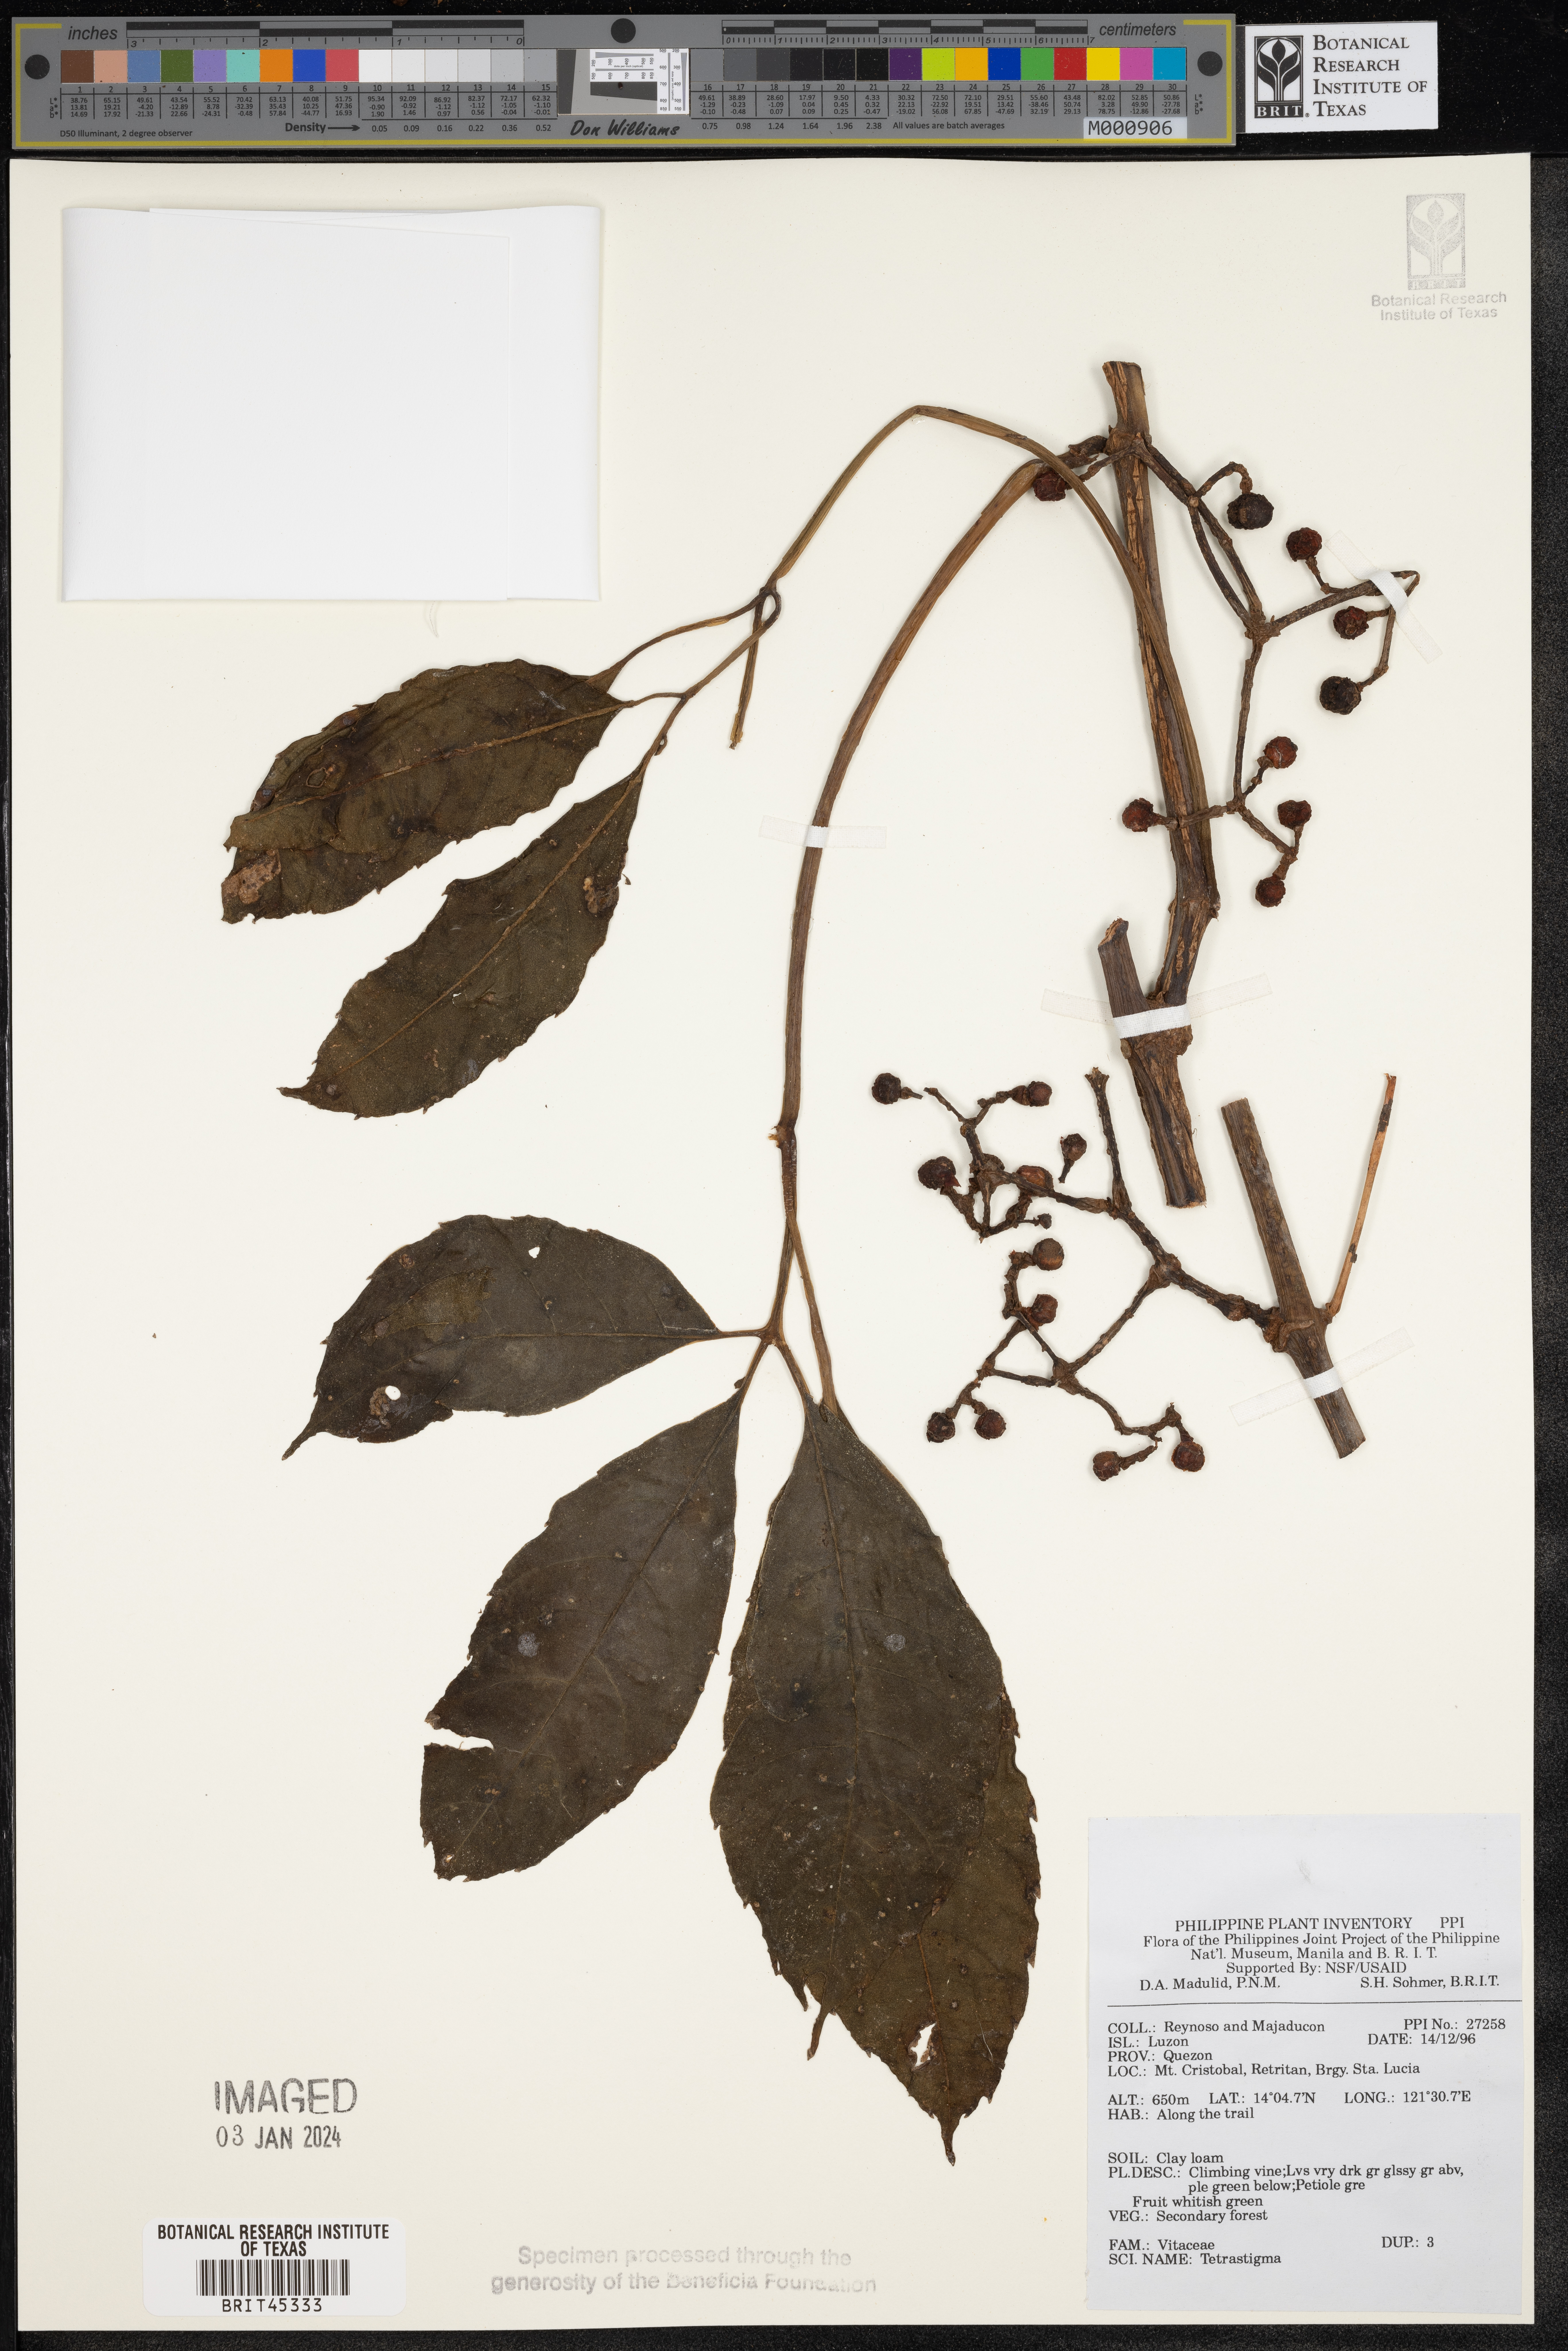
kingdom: Plantae
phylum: Tracheophyta
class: Magnoliopsida
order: Vitales
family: Vitaceae
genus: Tetrastigma
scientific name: Tetrastigma
